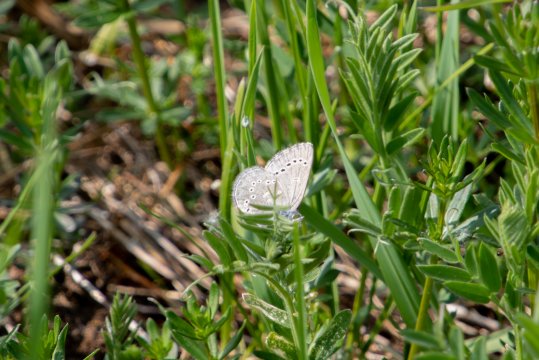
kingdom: Animalia
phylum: Arthropoda
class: Insecta
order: Lepidoptera
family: Lycaenidae
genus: Glaucopsyche
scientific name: Glaucopsyche lygdamus
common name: Silvery Blue
